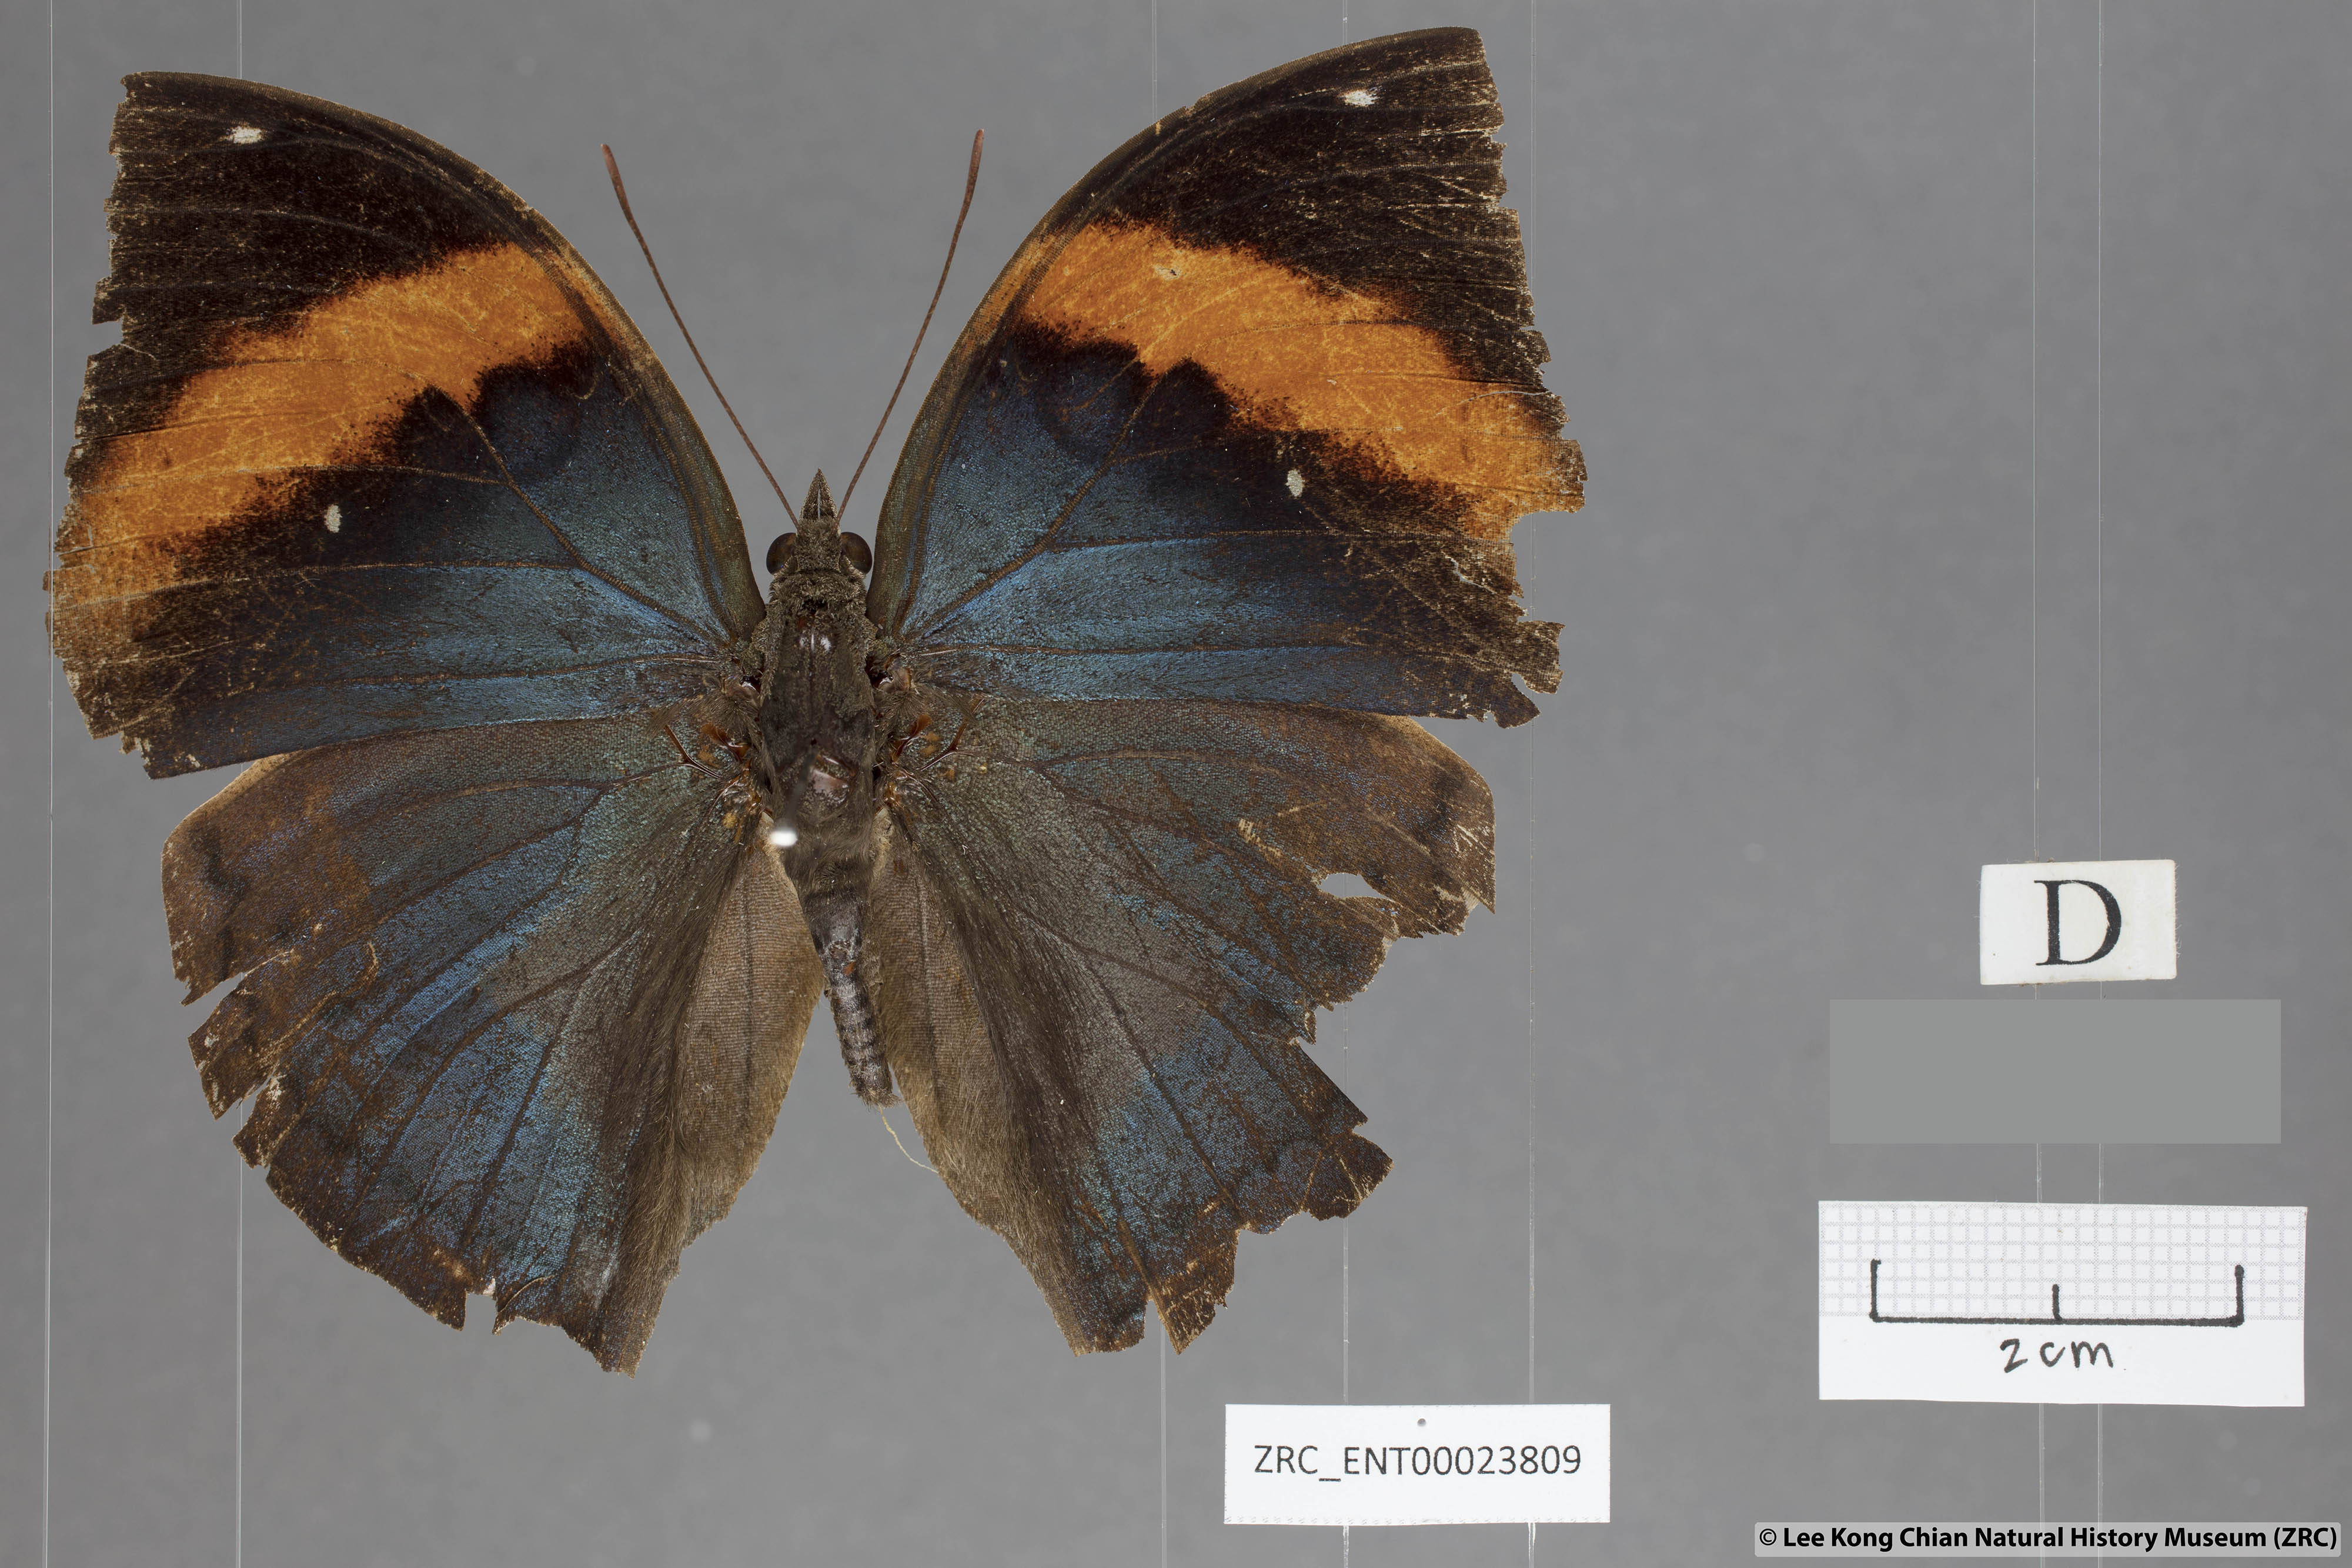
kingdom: Animalia
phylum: Arthropoda
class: Insecta
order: Lepidoptera
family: Nymphalidae
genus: Kallima
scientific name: Kallima paralekta
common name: Indian leafwing
